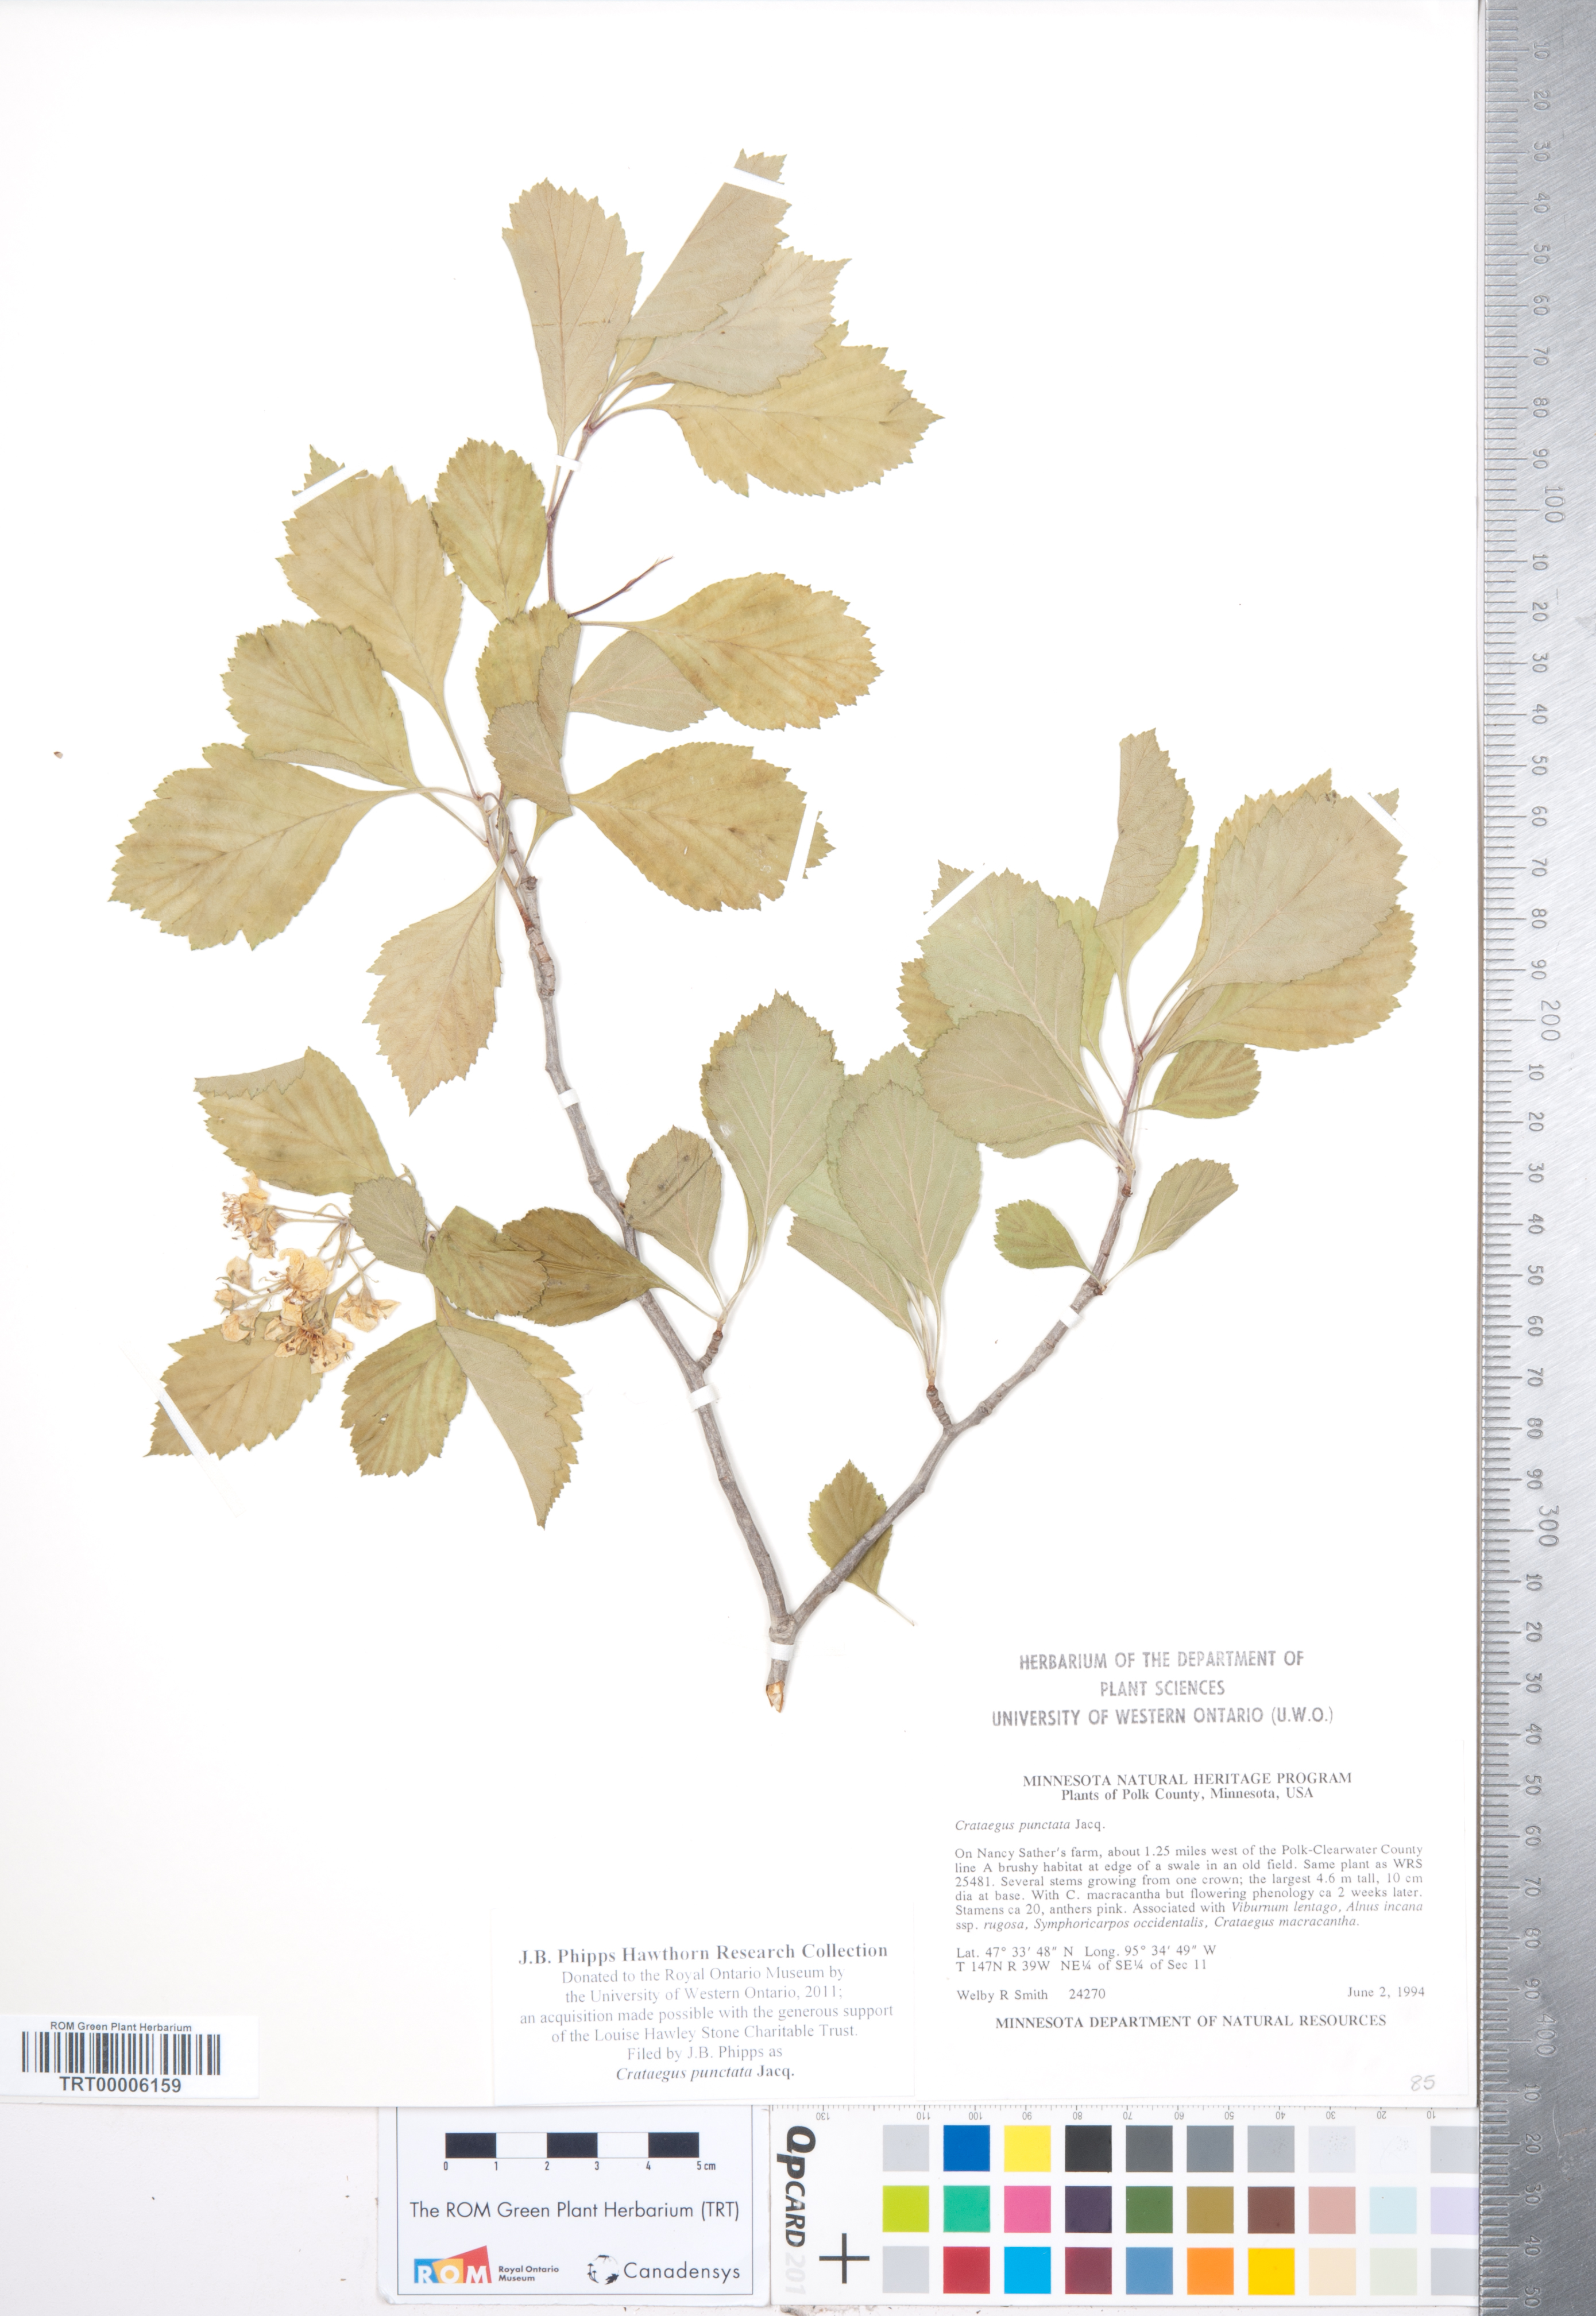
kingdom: Plantae
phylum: Tracheophyta
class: Magnoliopsida
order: Rosales
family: Rosaceae
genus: Crataegus
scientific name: Crataegus punctata
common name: Dotted hawthorn
